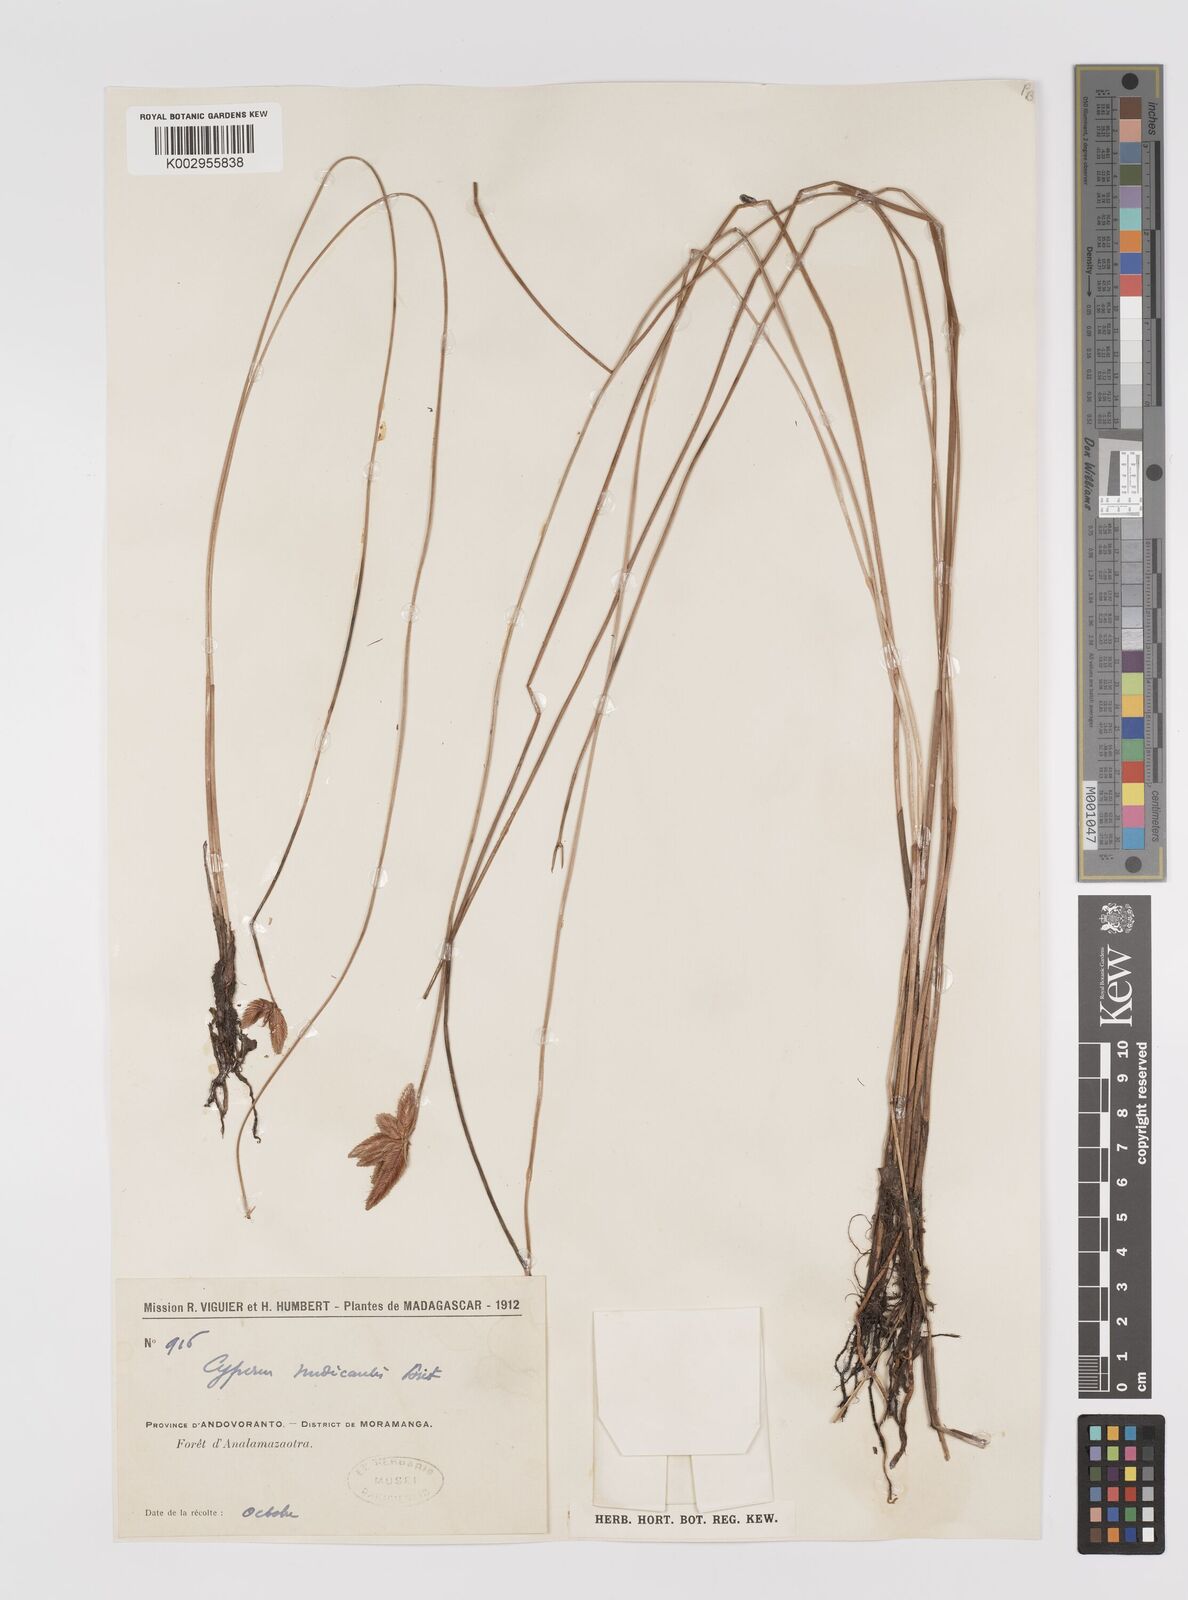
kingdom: Plantae
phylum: Tracheophyta
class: Liliopsida
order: Poales
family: Cyperaceae
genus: Cyperus
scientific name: Cyperus compressus
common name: Poorland flatsedge
